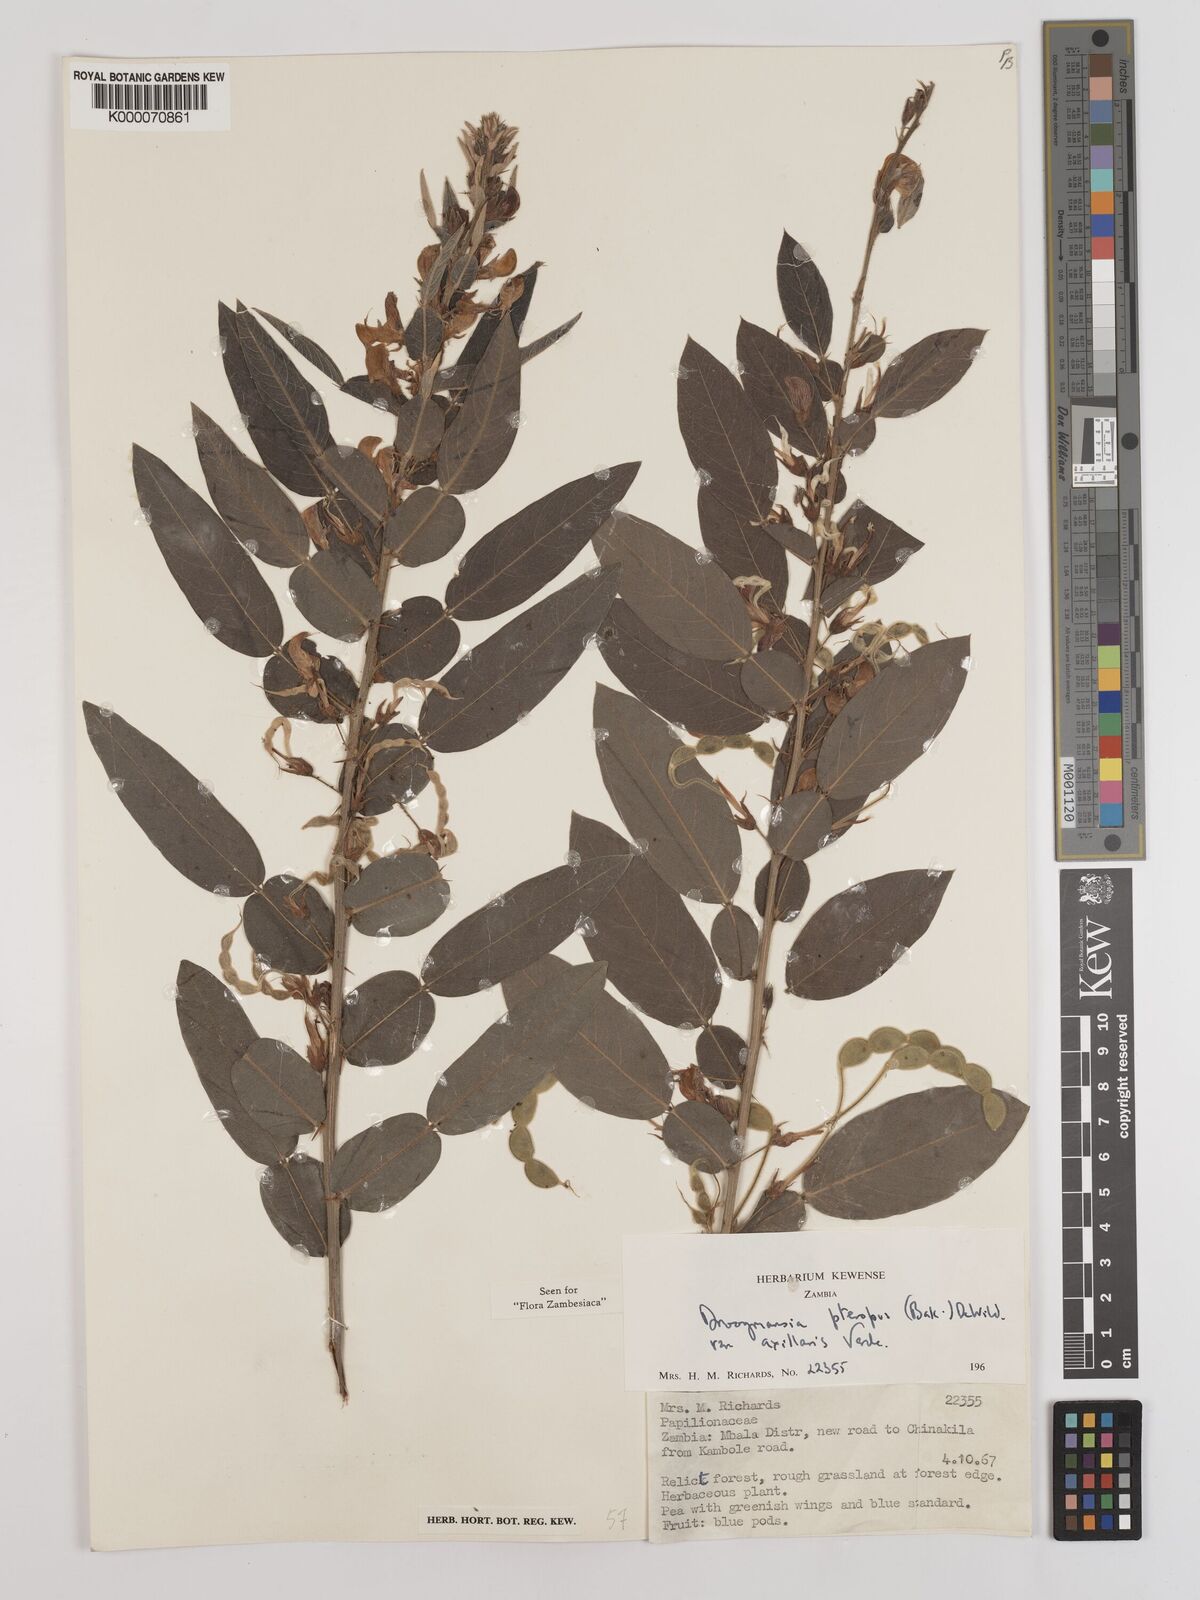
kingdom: Plantae
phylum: Tracheophyta
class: Magnoliopsida
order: Fabales
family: Fabaceae
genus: Droogmansia
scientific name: Droogmansia pteropus
